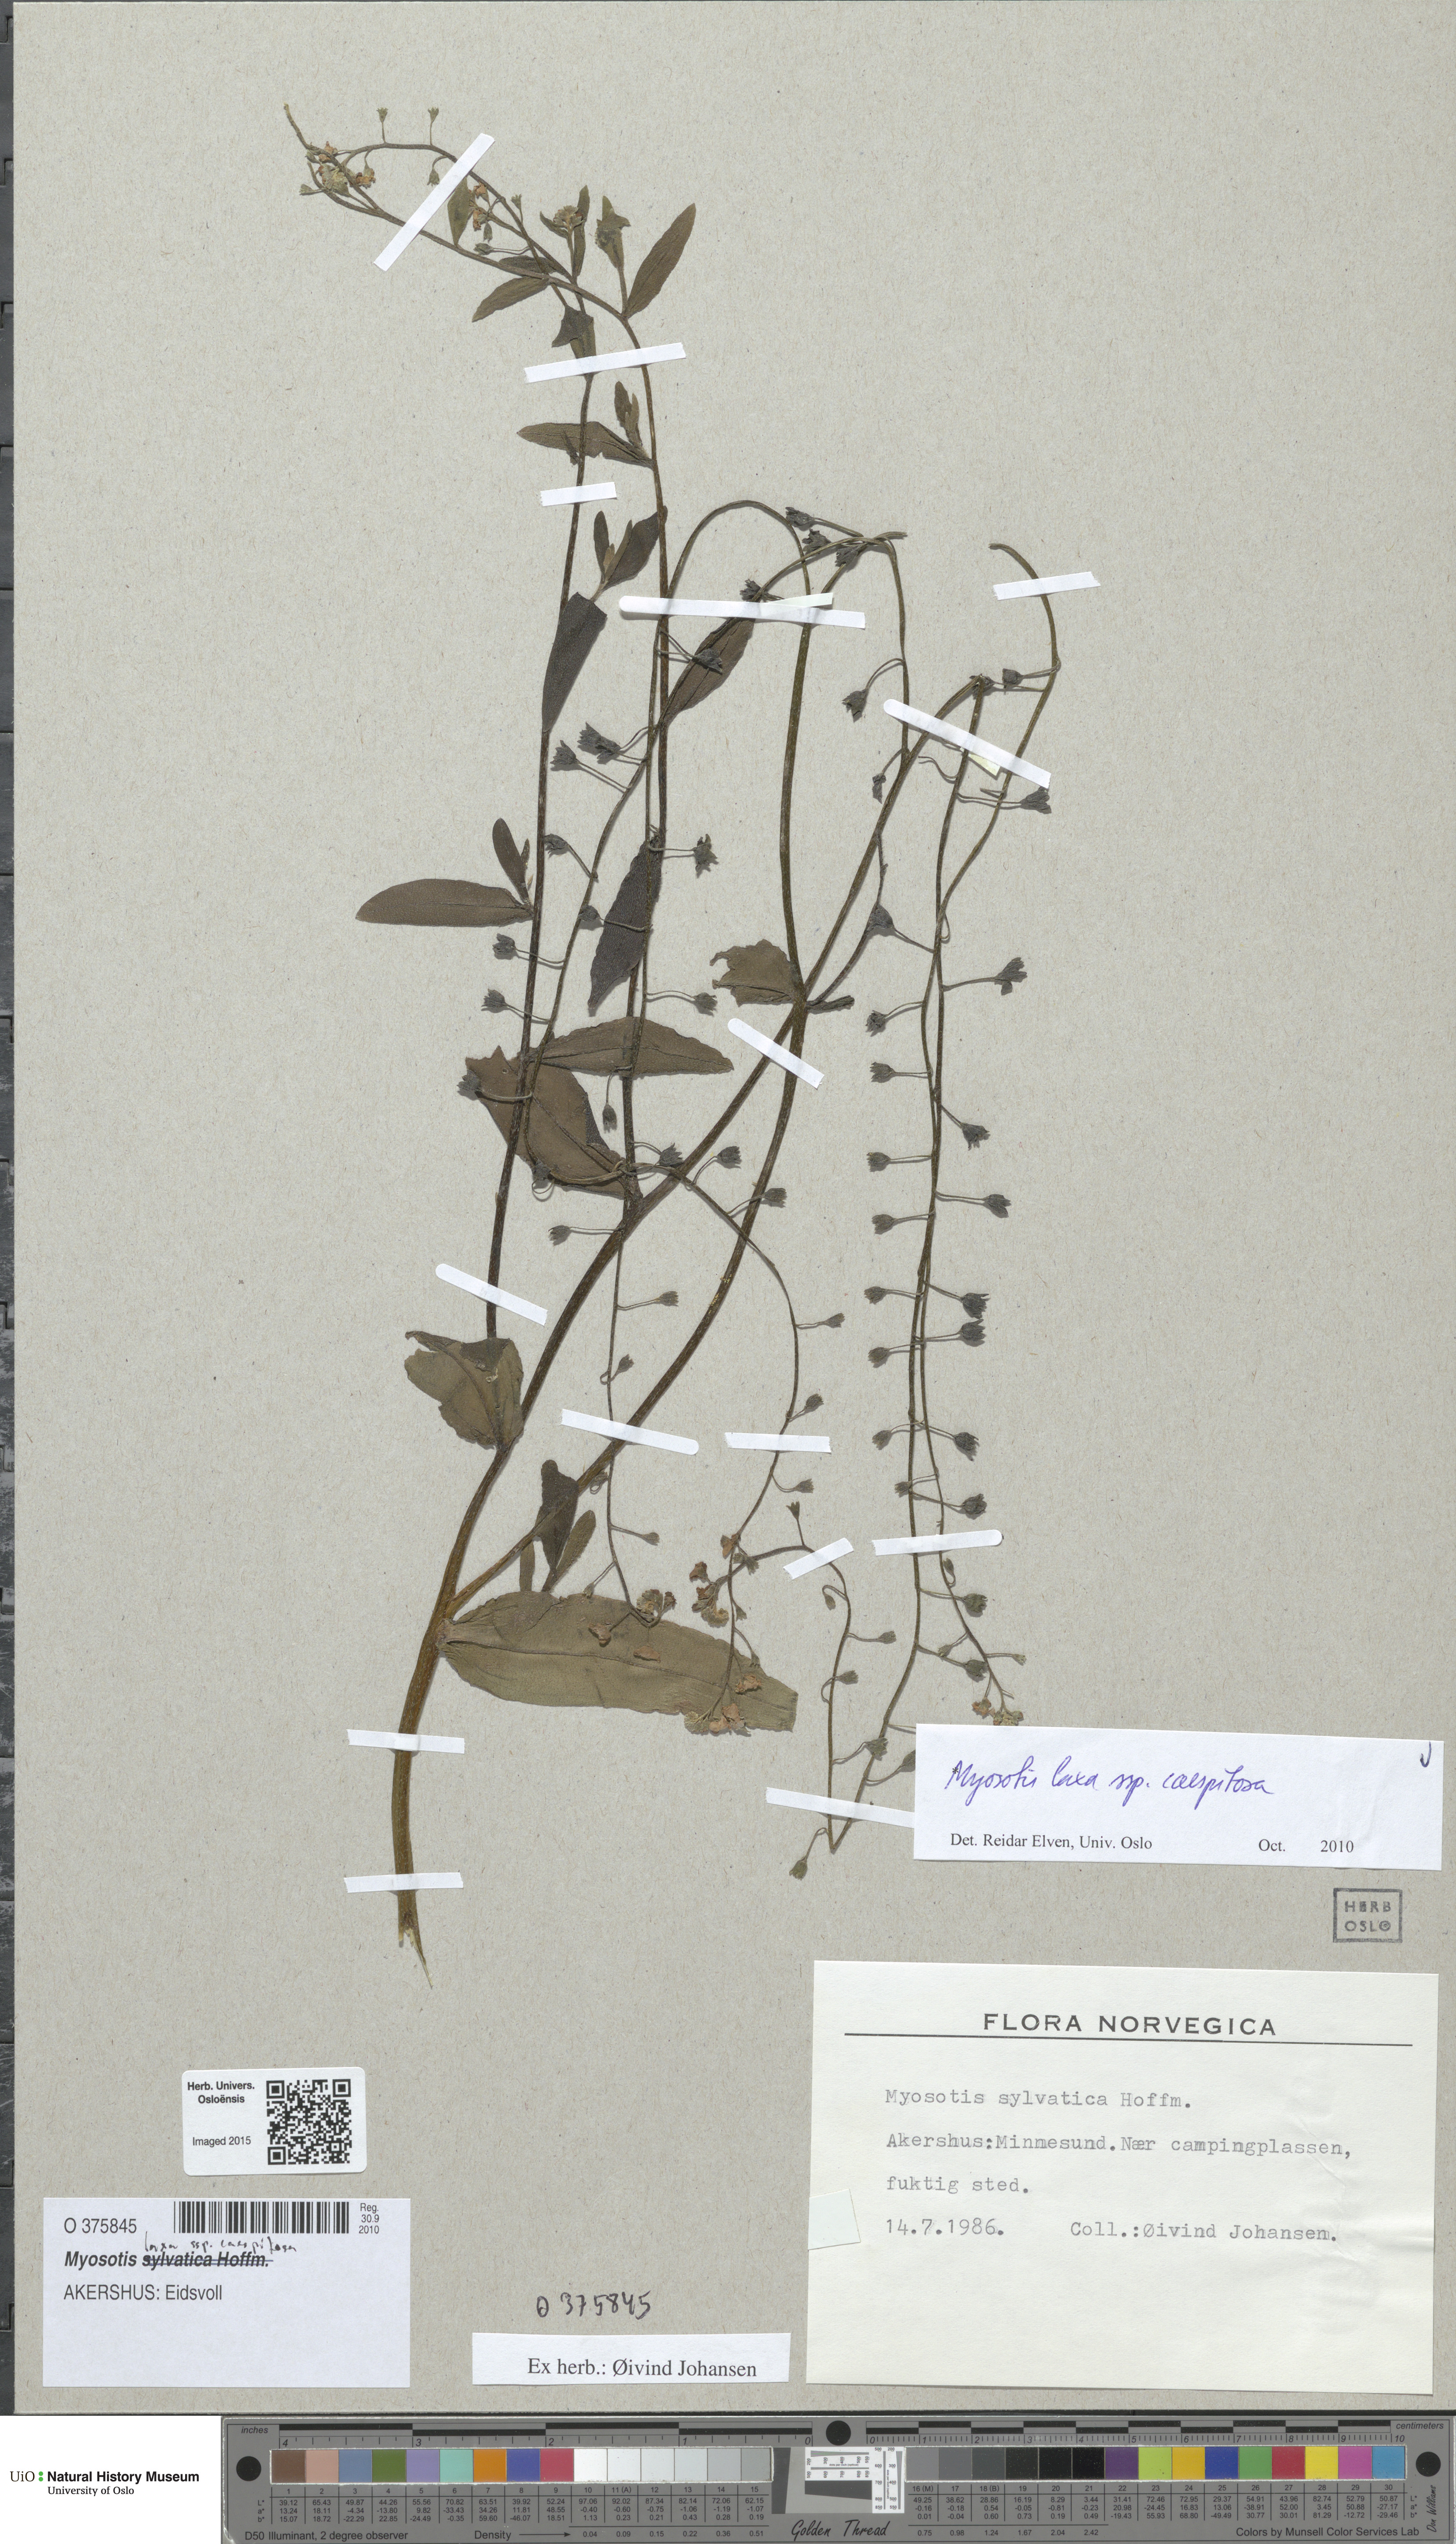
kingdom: Plantae
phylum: Tracheophyta
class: Magnoliopsida
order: Boraginales
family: Boraginaceae
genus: Myosotis
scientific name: Myosotis laxa
